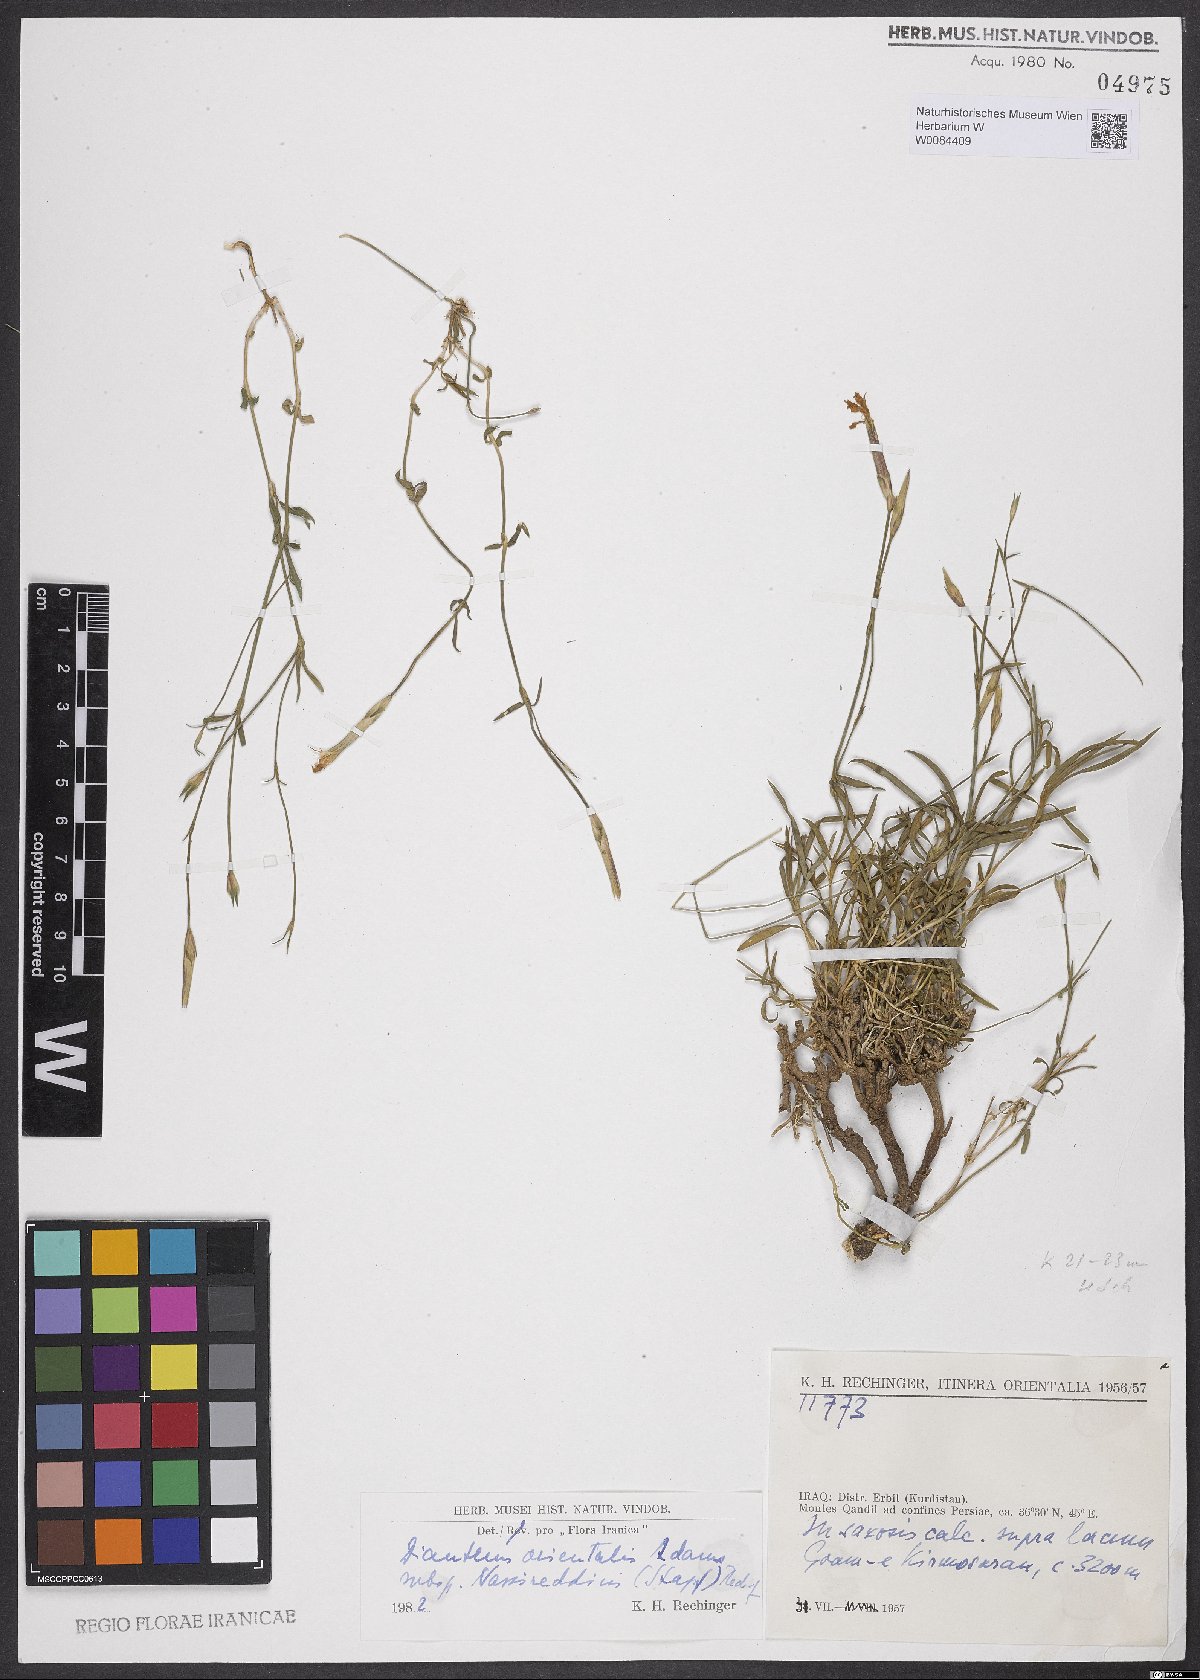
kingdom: Plantae
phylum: Tracheophyta
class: Magnoliopsida
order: Caryophyllales
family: Caryophyllaceae
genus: Dianthus
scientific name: Dianthus orientalis
